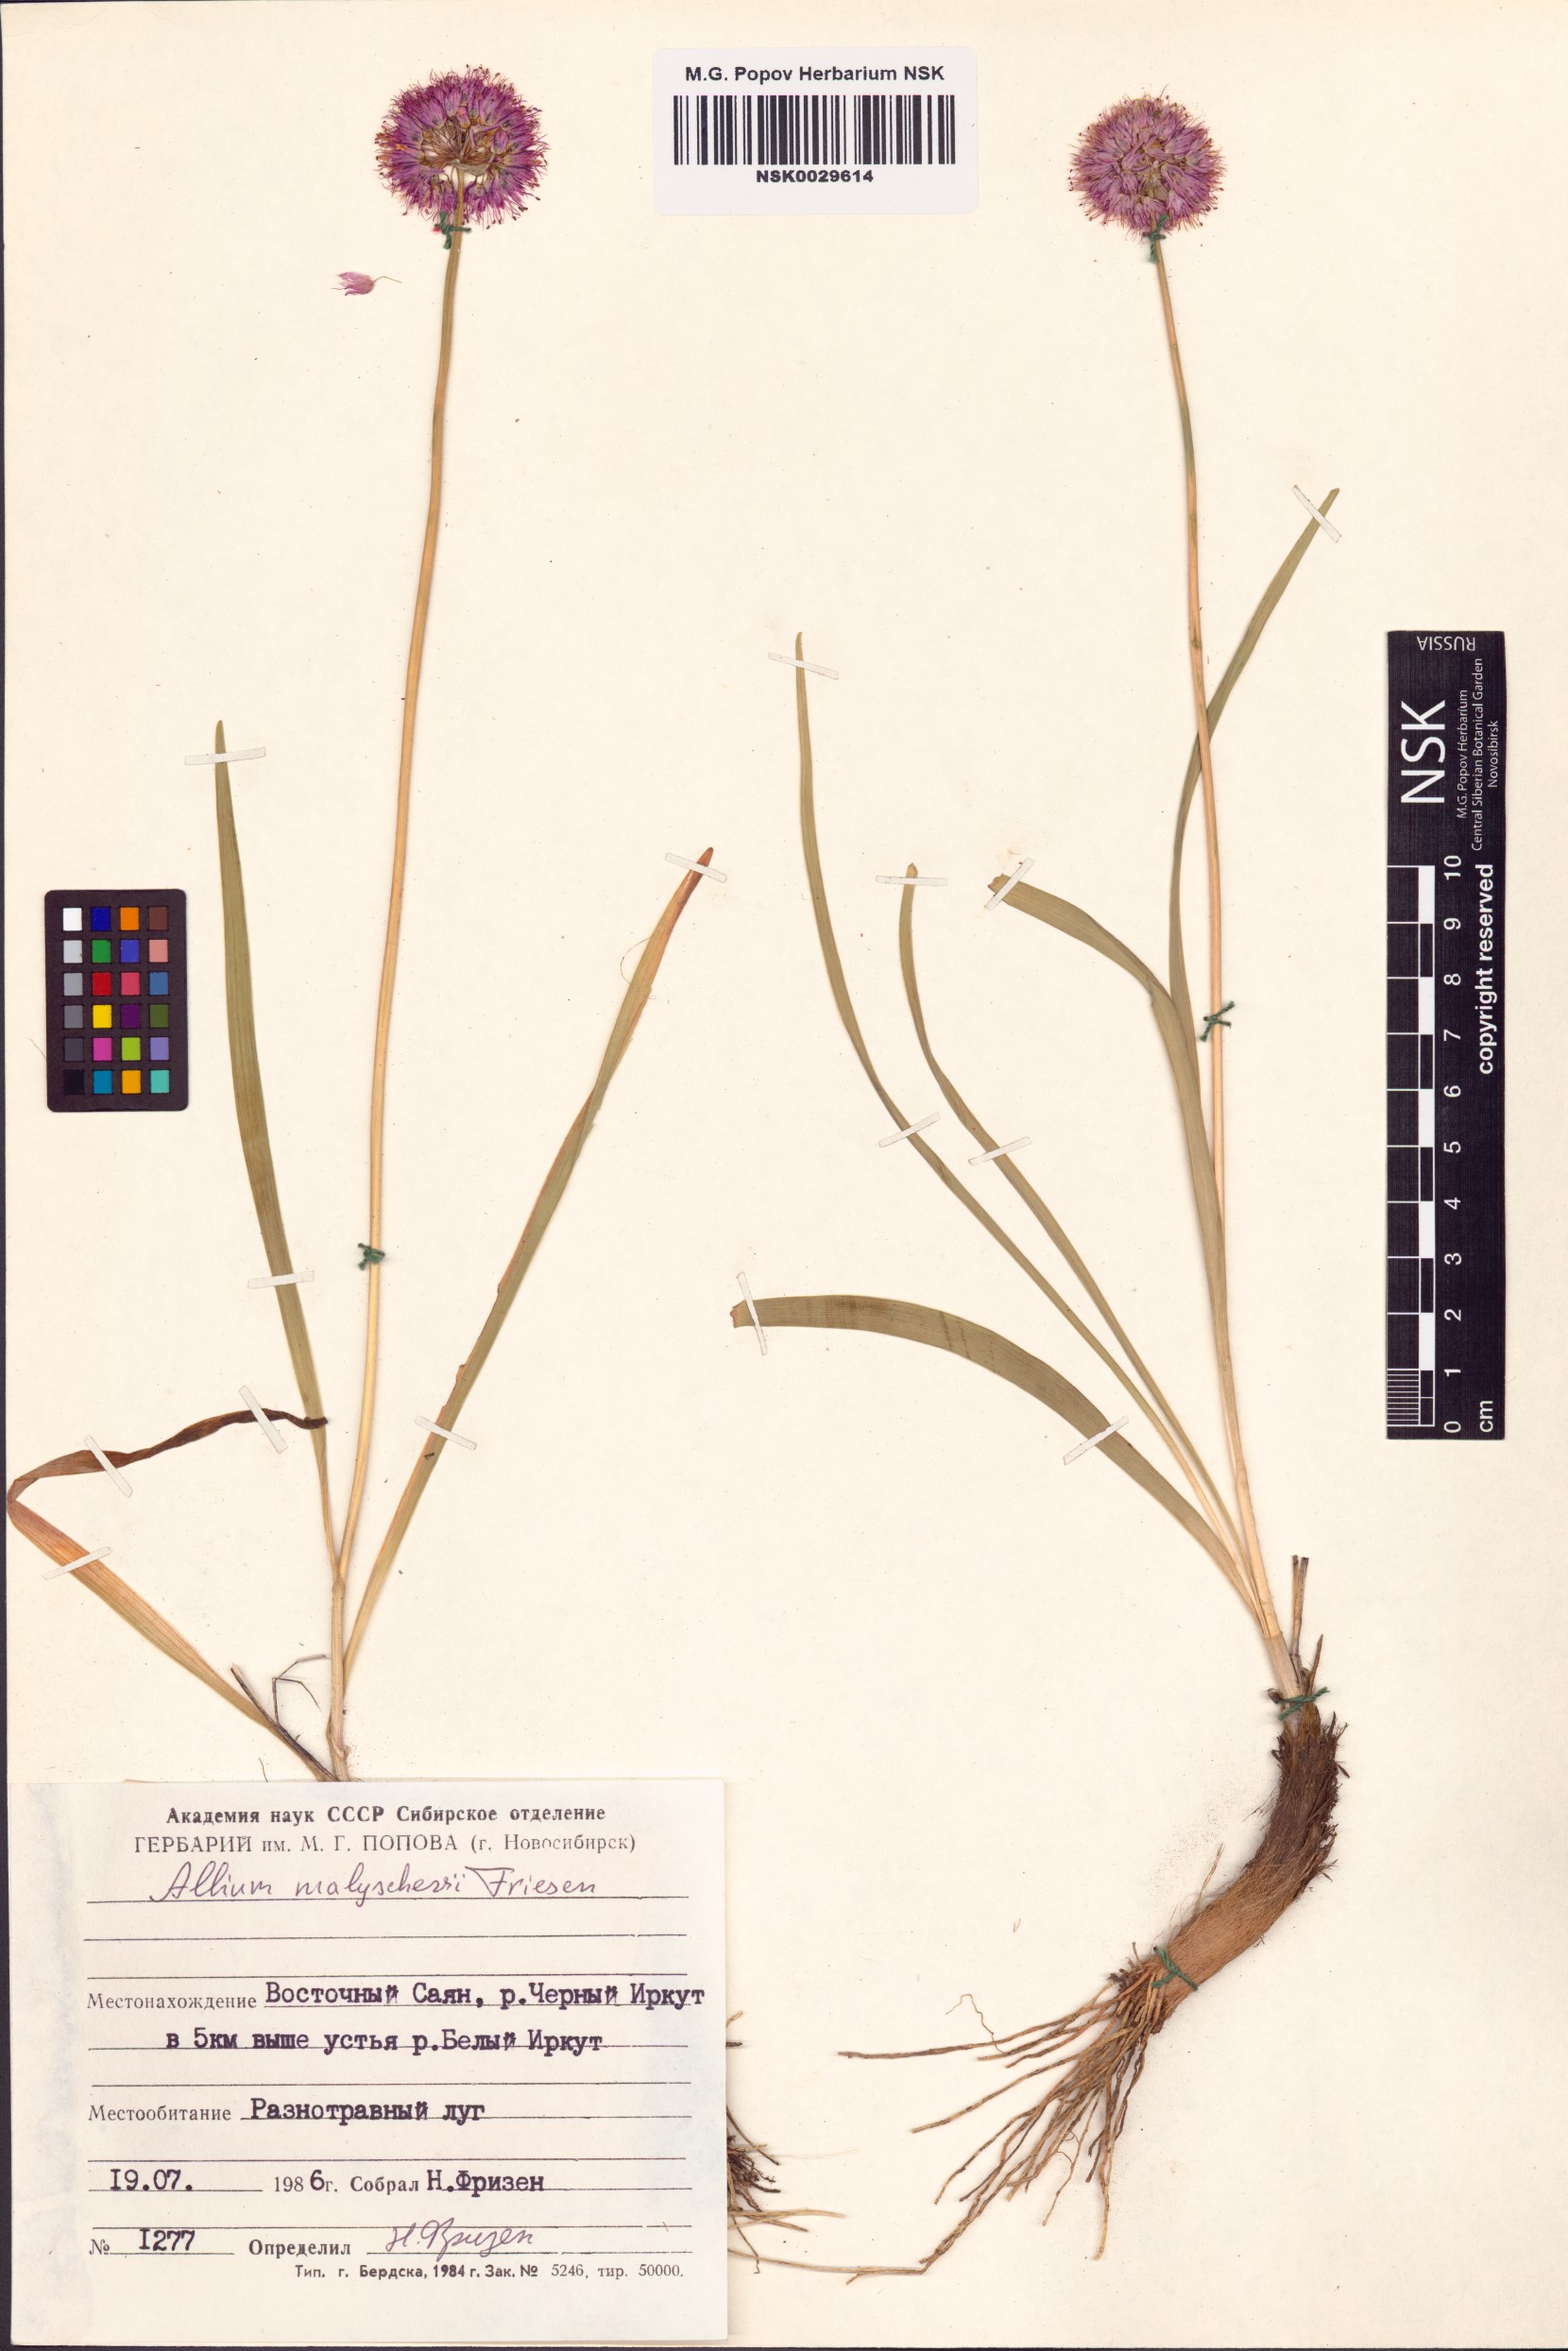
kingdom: Plantae
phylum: Tracheophyta
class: Liliopsida
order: Asparagales
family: Amaryllidaceae
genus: Allium
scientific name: Allium malyschevii
